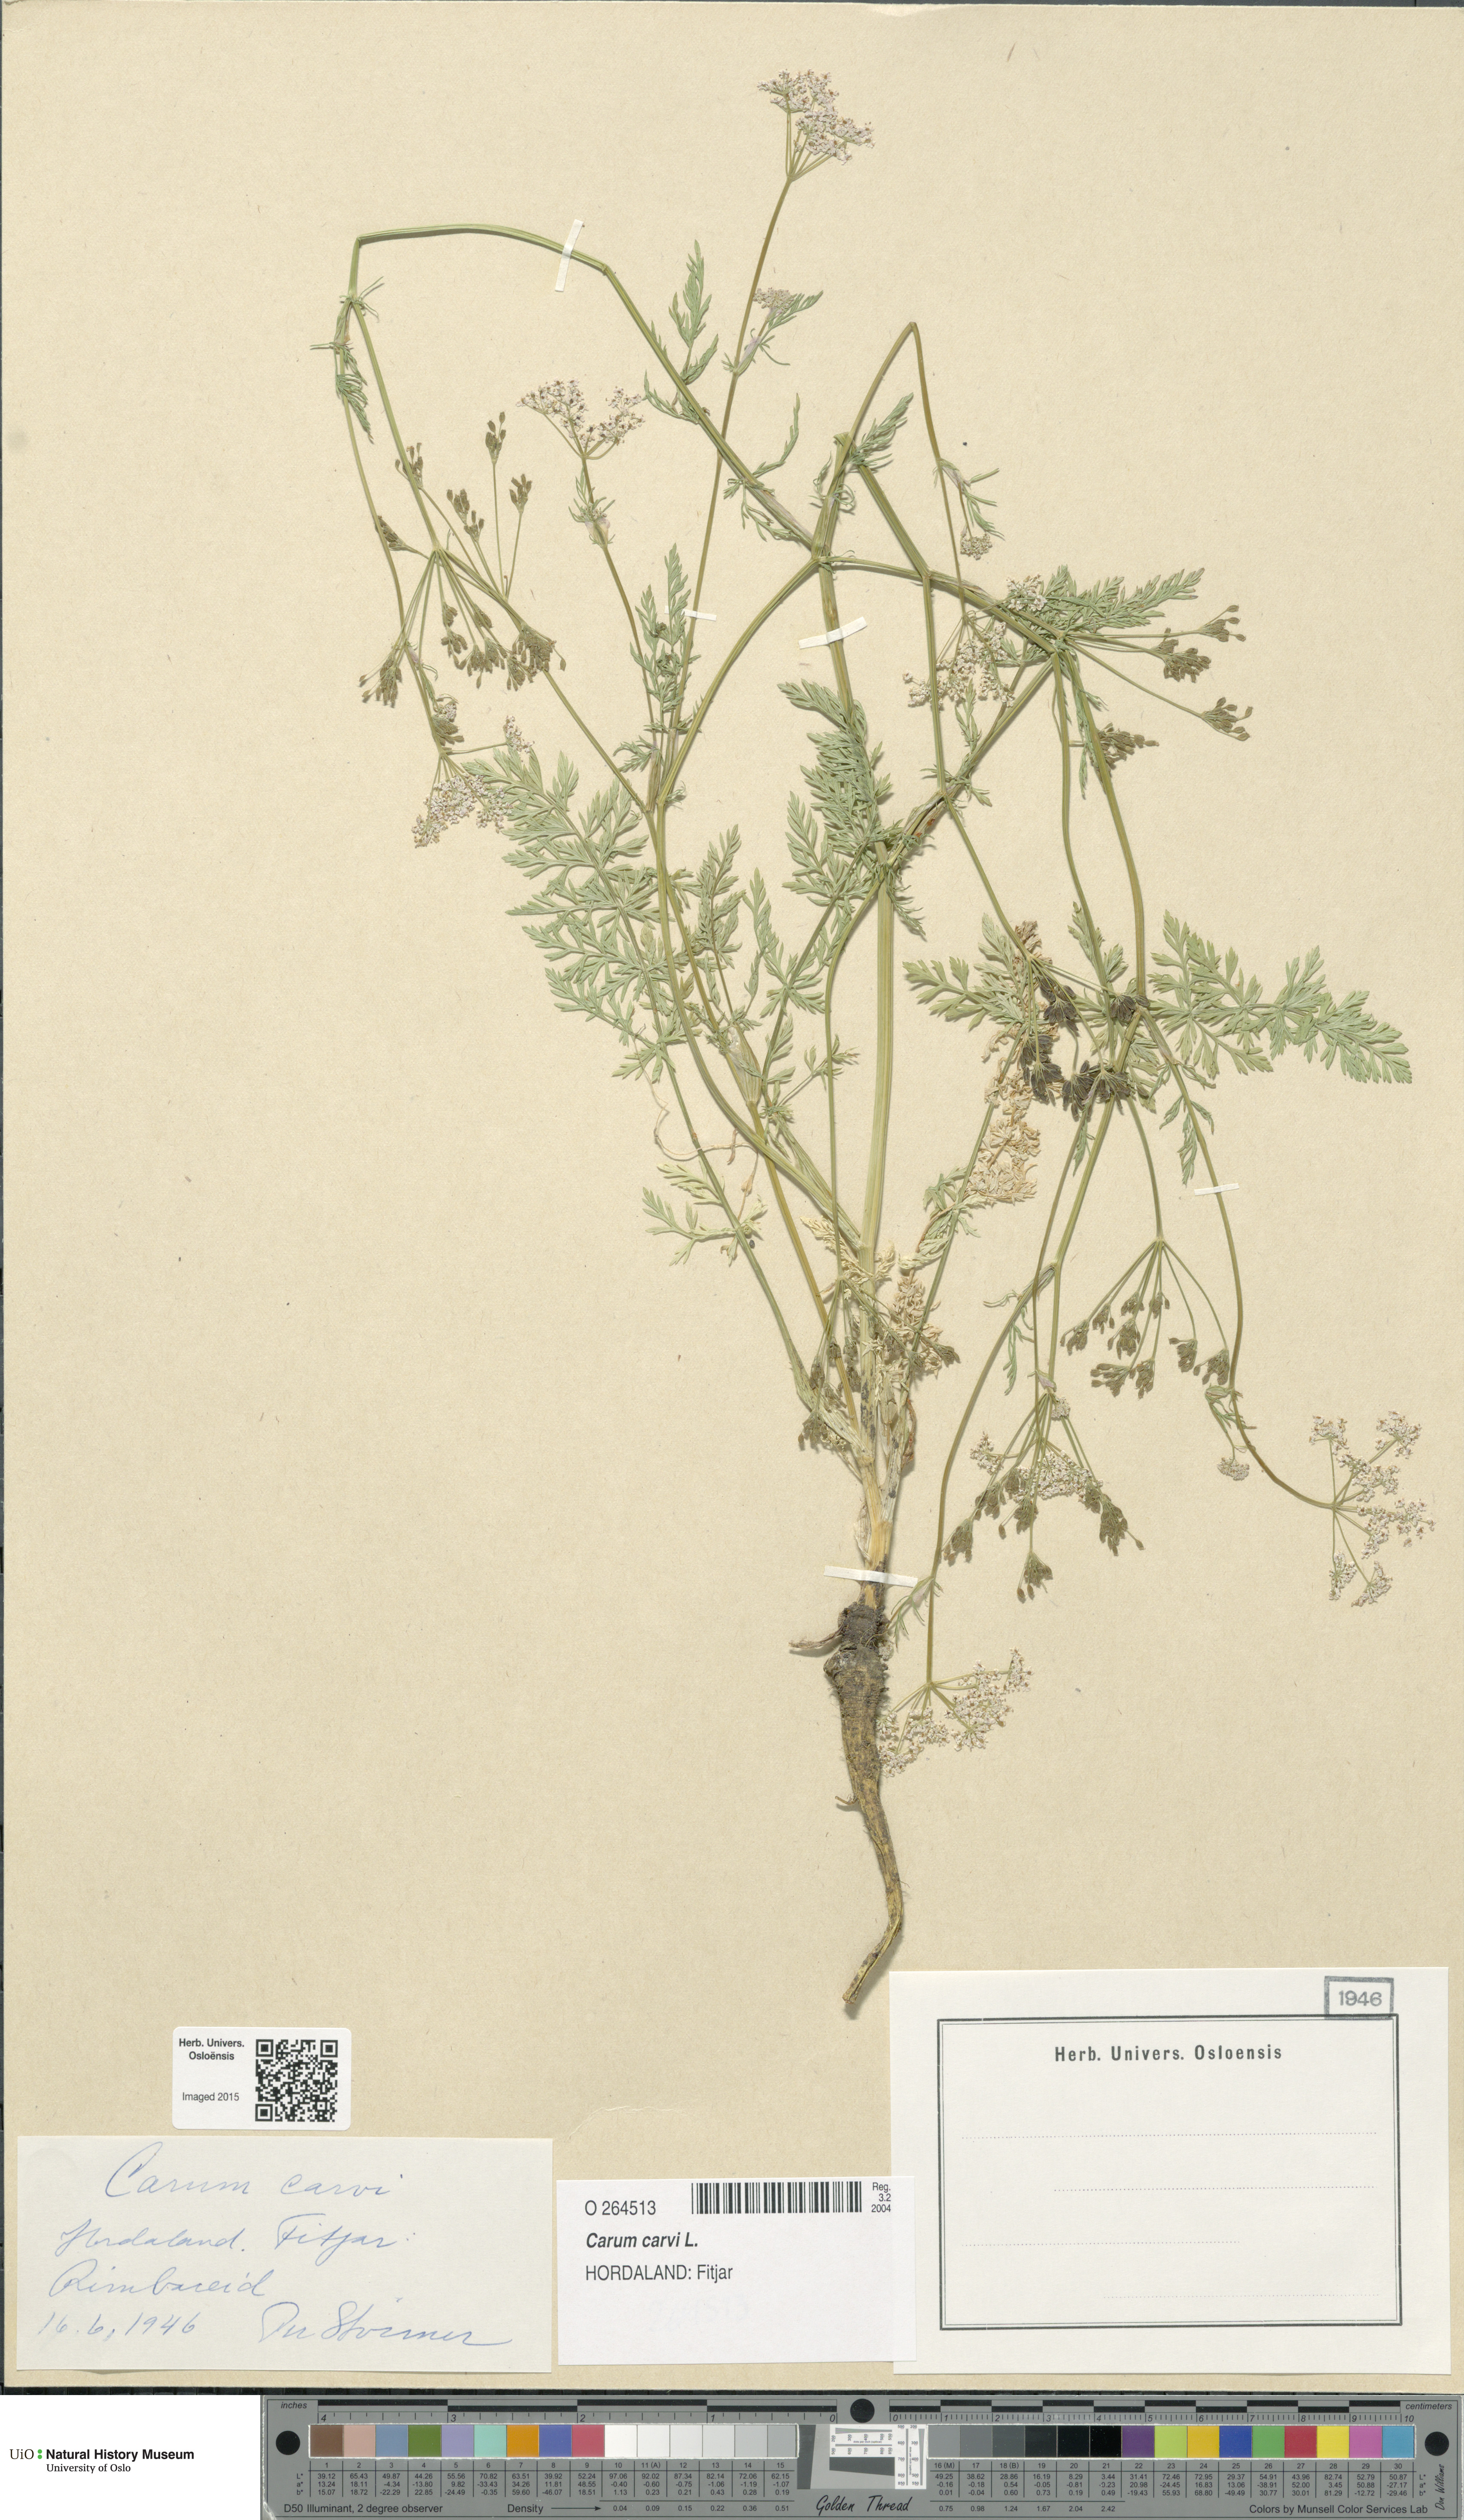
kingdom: Plantae
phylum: Tracheophyta
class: Magnoliopsida
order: Apiales
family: Apiaceae
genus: Carum
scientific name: Carum carvi
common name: Caraway
